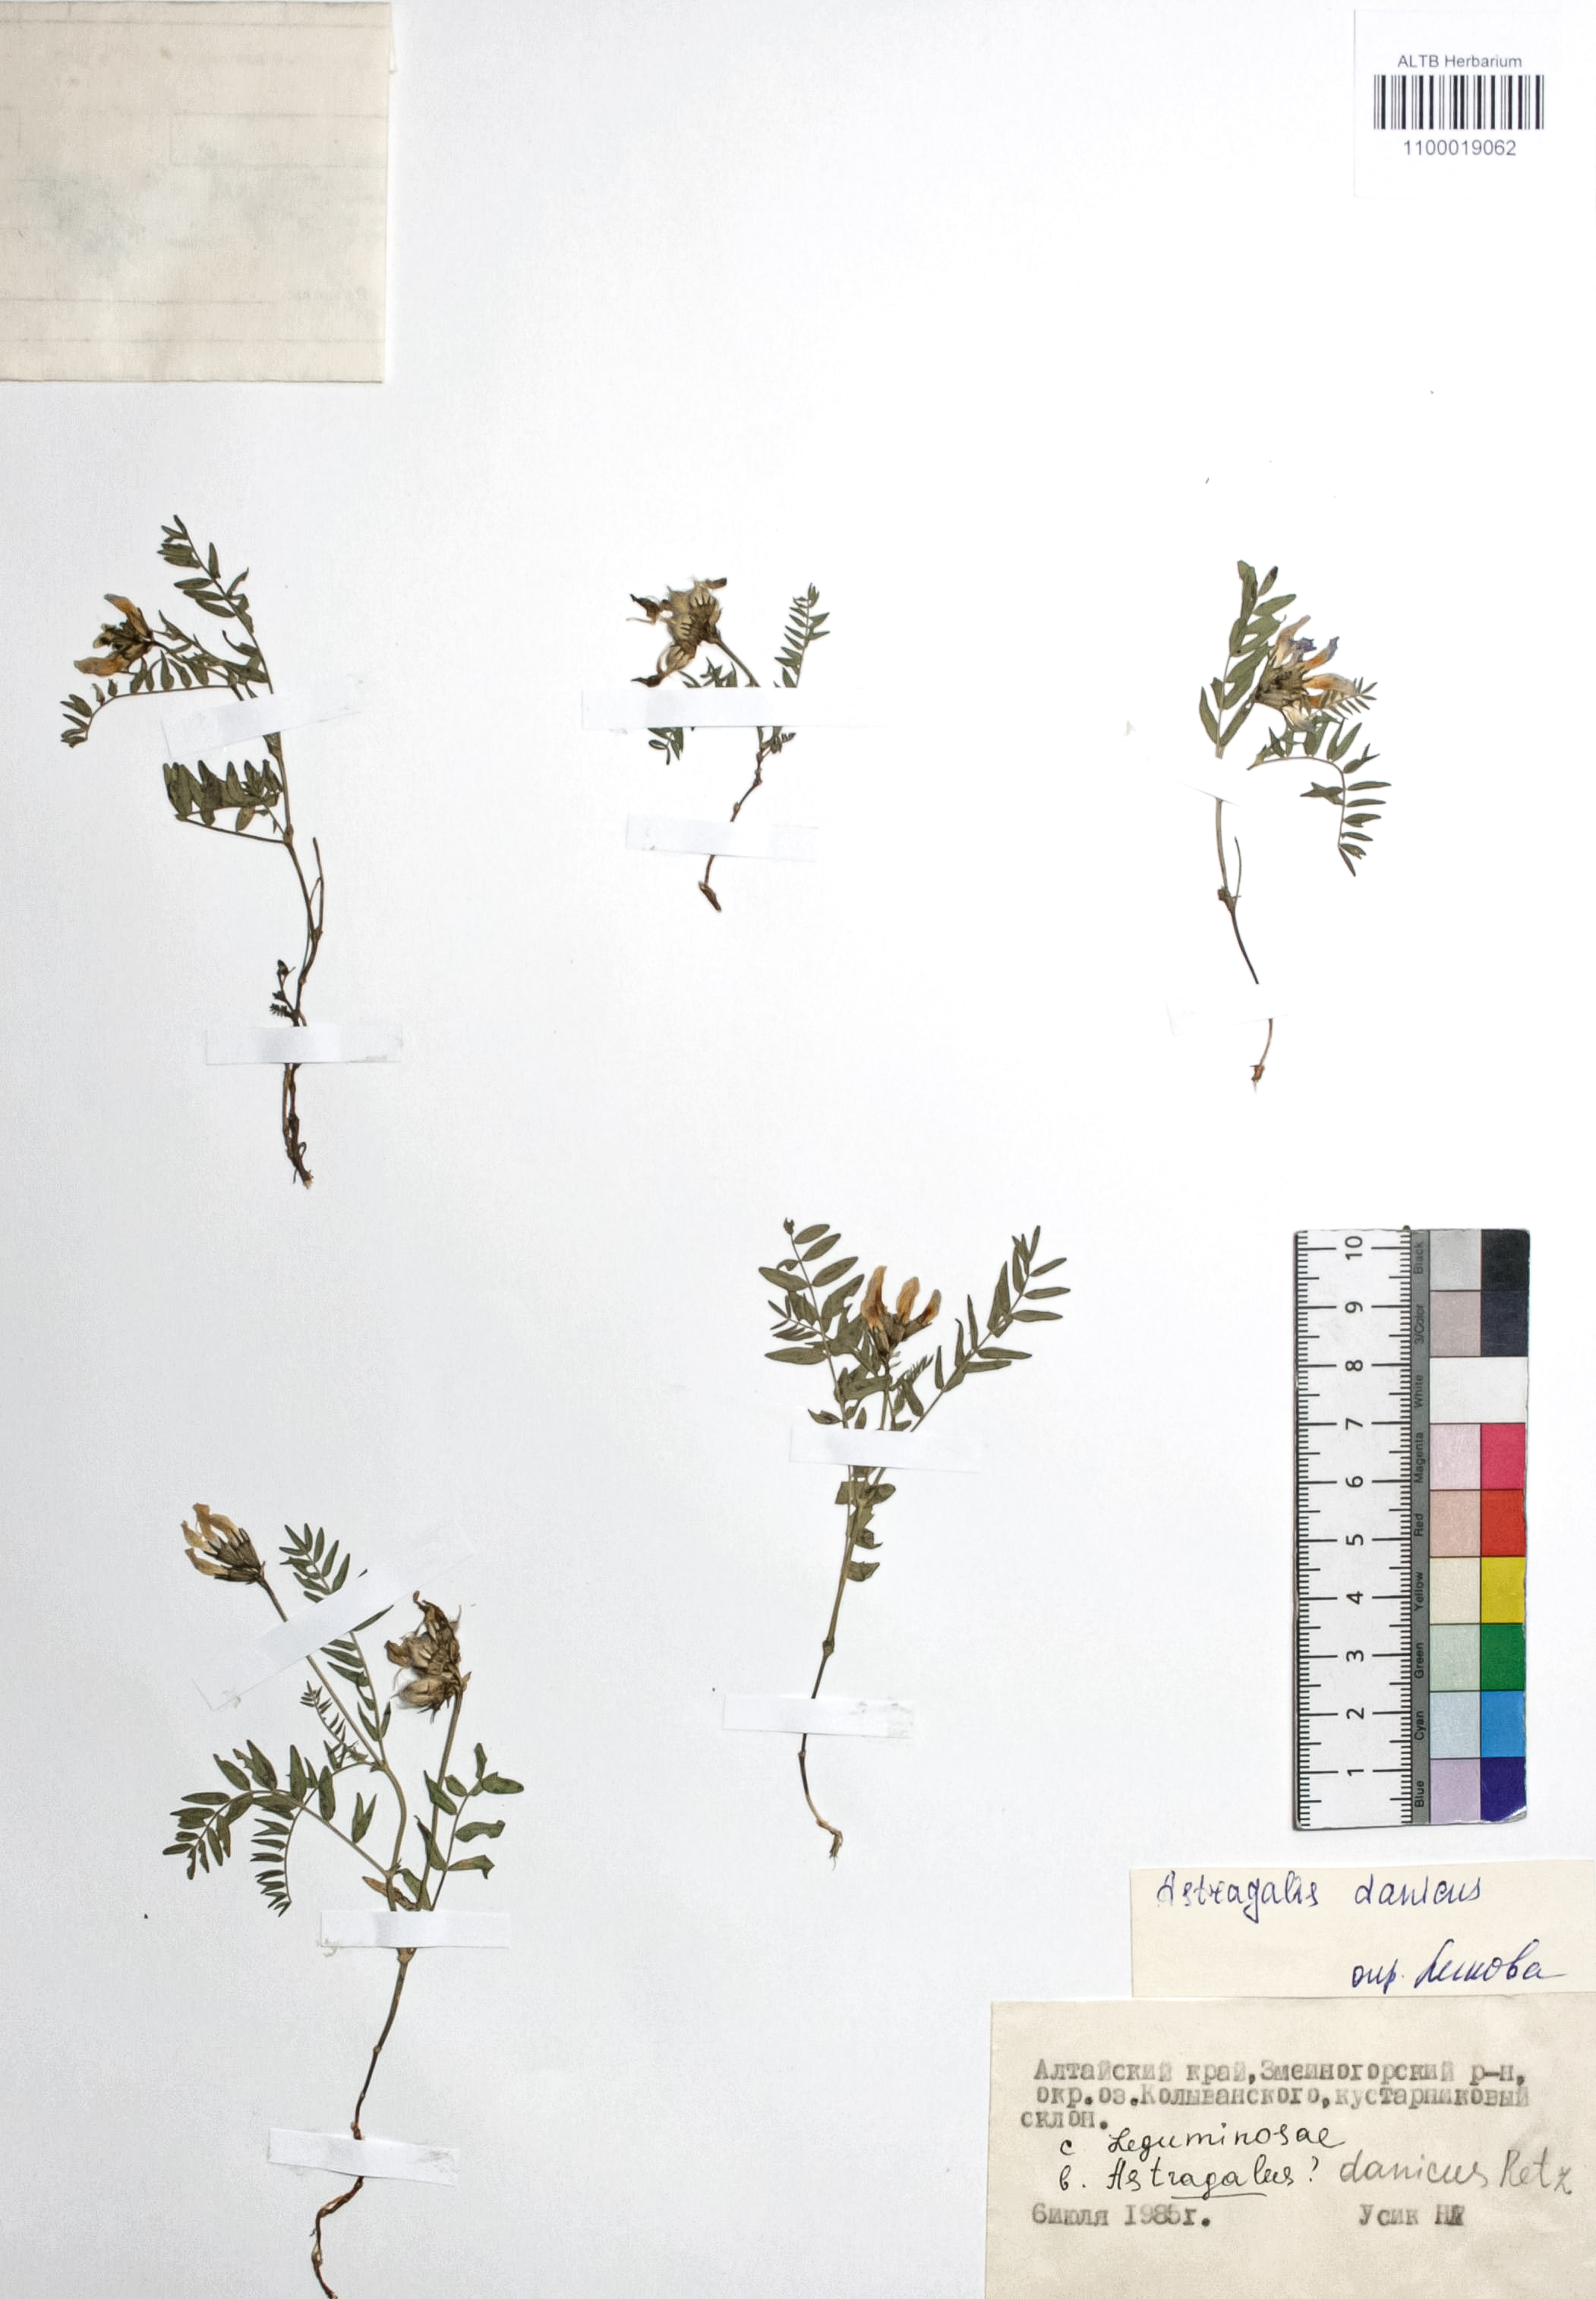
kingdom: Plantae
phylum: Tracheophyta
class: Magnoliopsida
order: Fabales
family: Fabaceae
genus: Astragalus
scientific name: Astragalus danicus
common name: Purple milk-vetch
